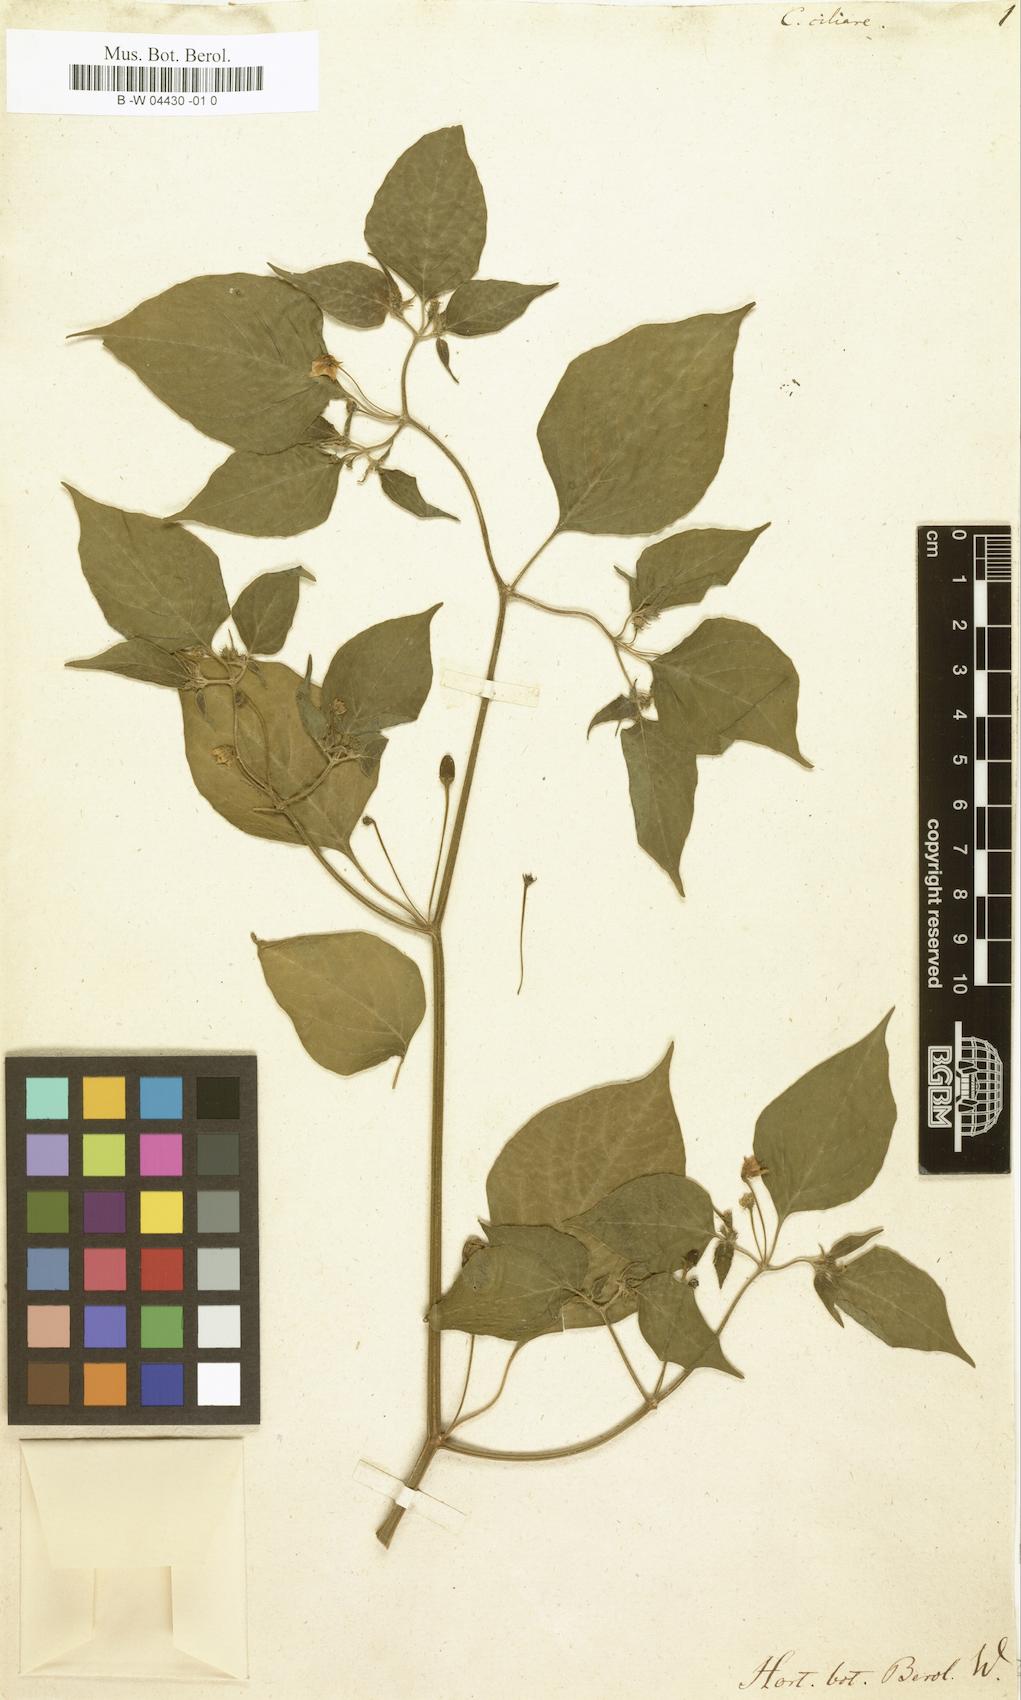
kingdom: Plantae
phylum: Tracheophyta
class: Magnoliopsida
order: Solanales
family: Solanaceae
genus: Capsicum
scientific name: Capsicum baccatum
